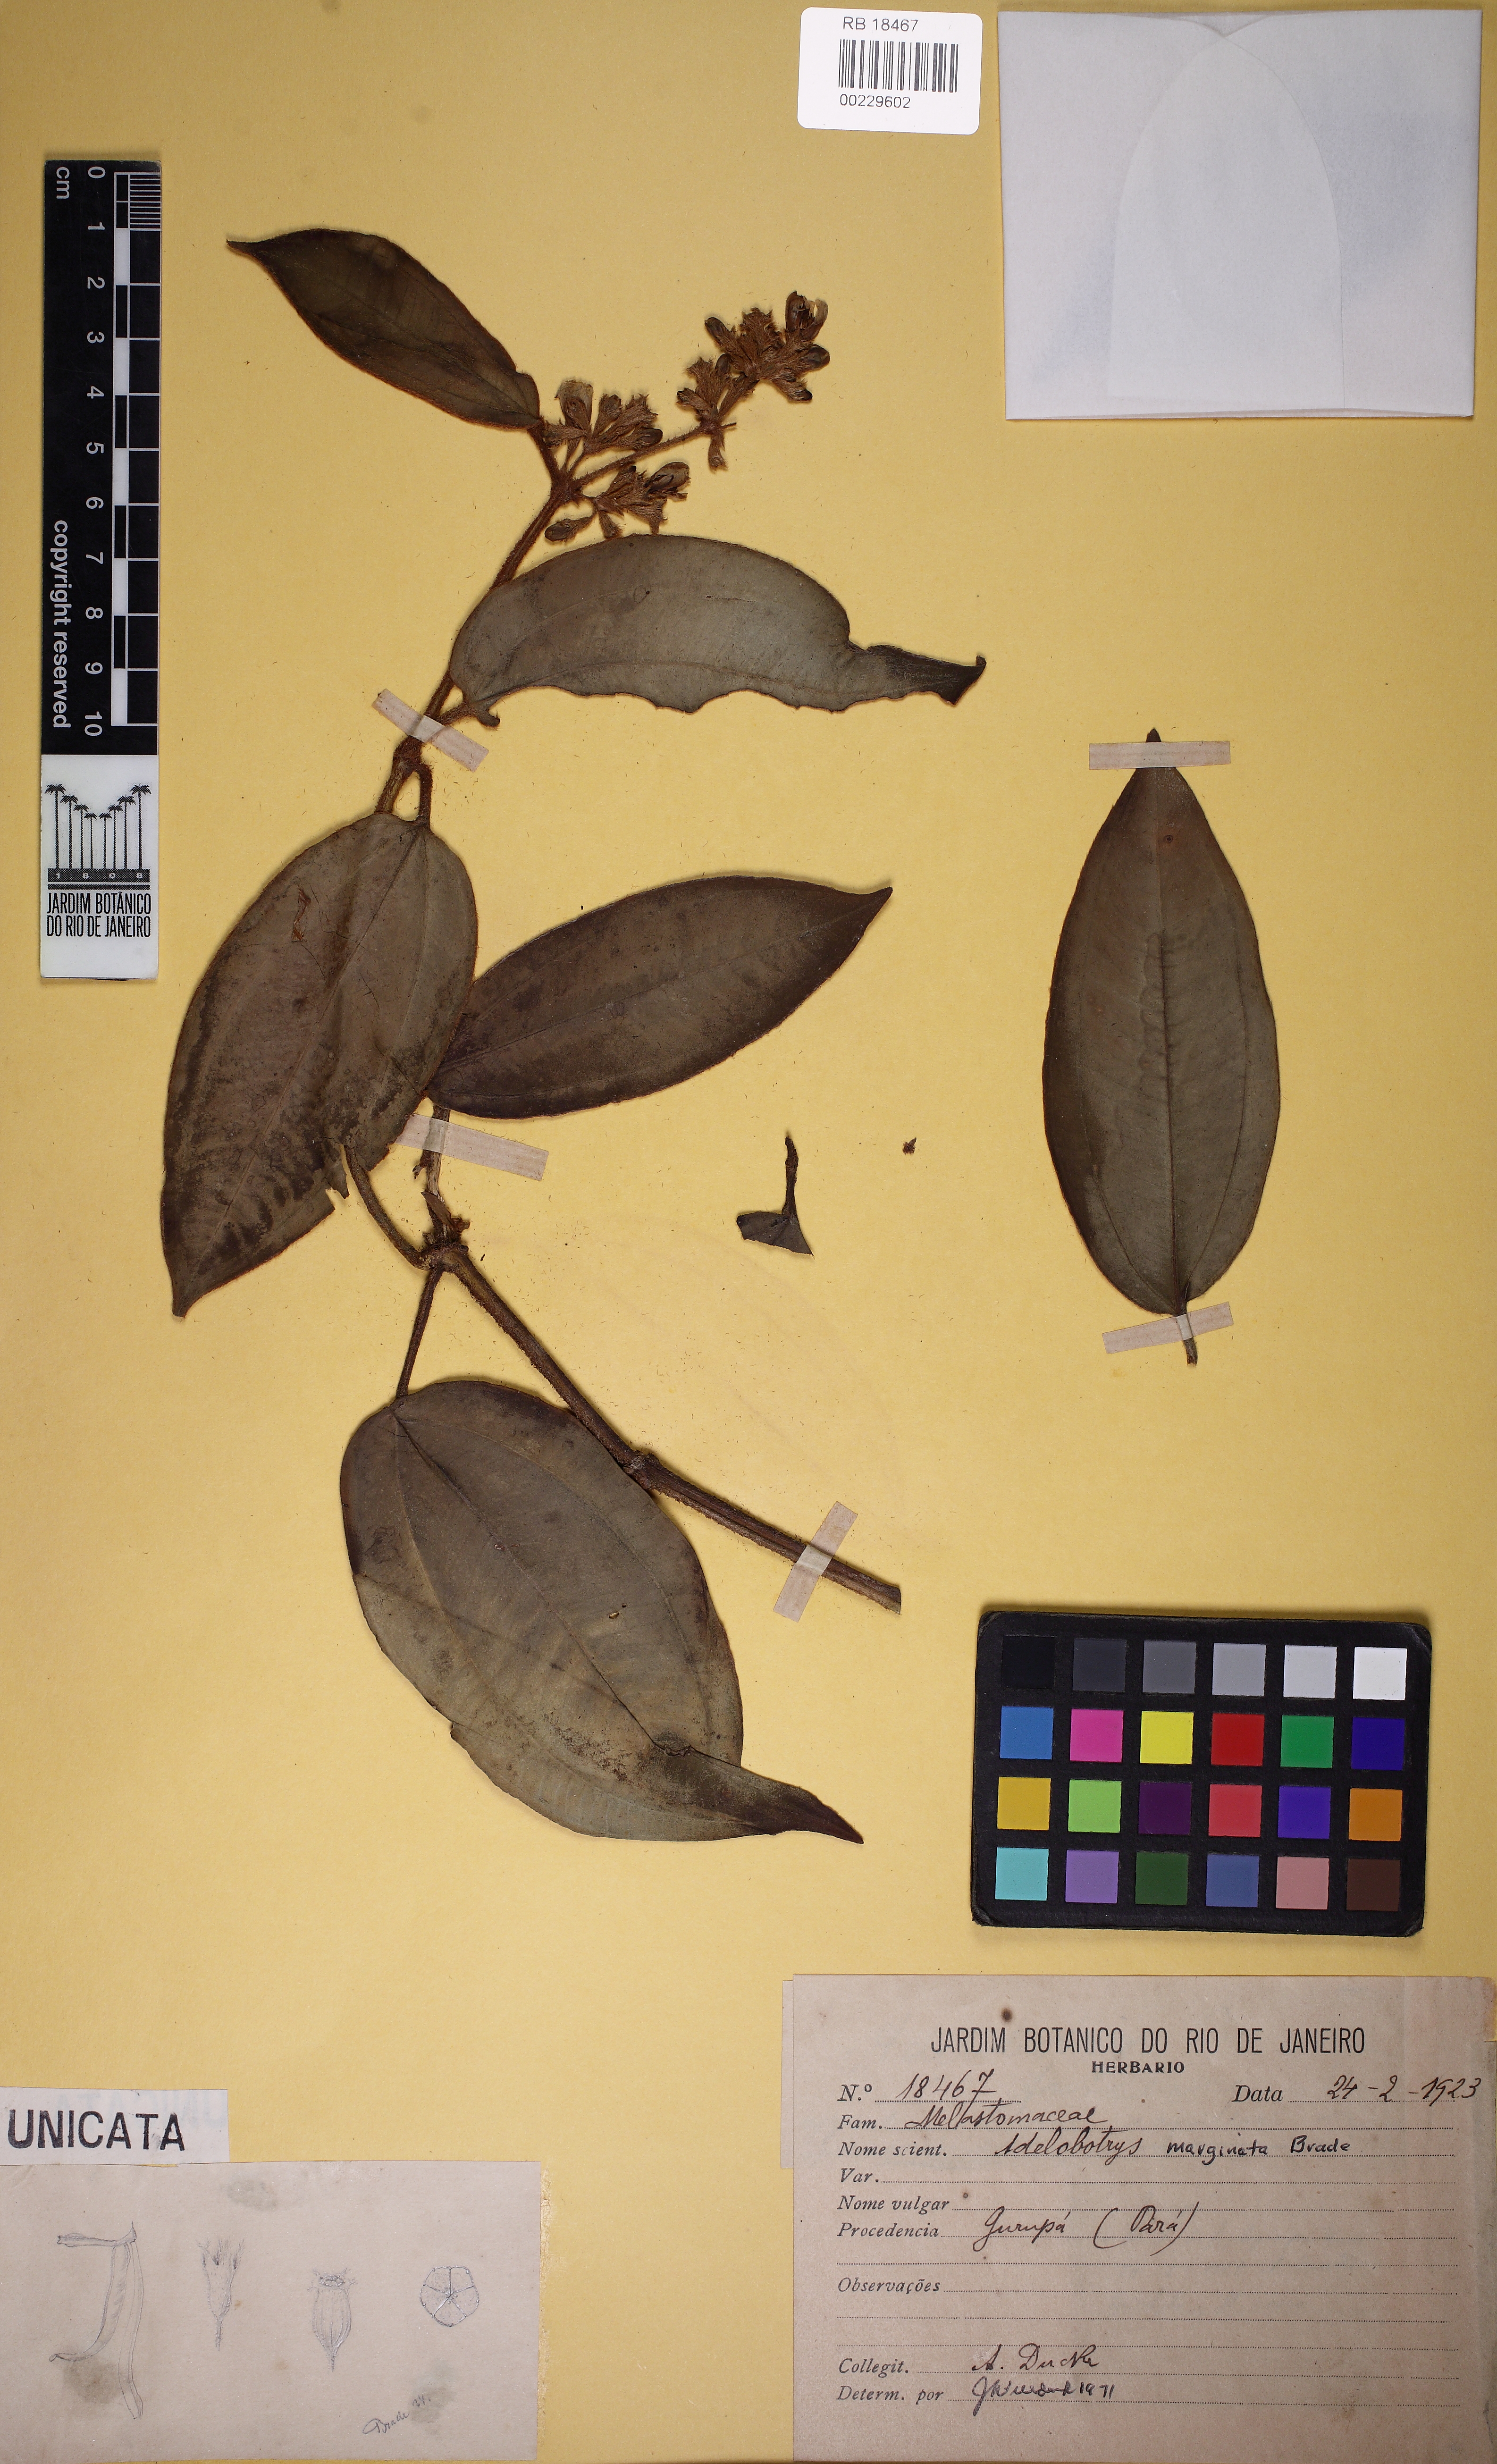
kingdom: Plantae
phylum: Tracheophyta
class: Magnoliopsida
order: Myrtales
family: Melastomataceae
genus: Adelobotrys
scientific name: Adelobotrys marginatus
